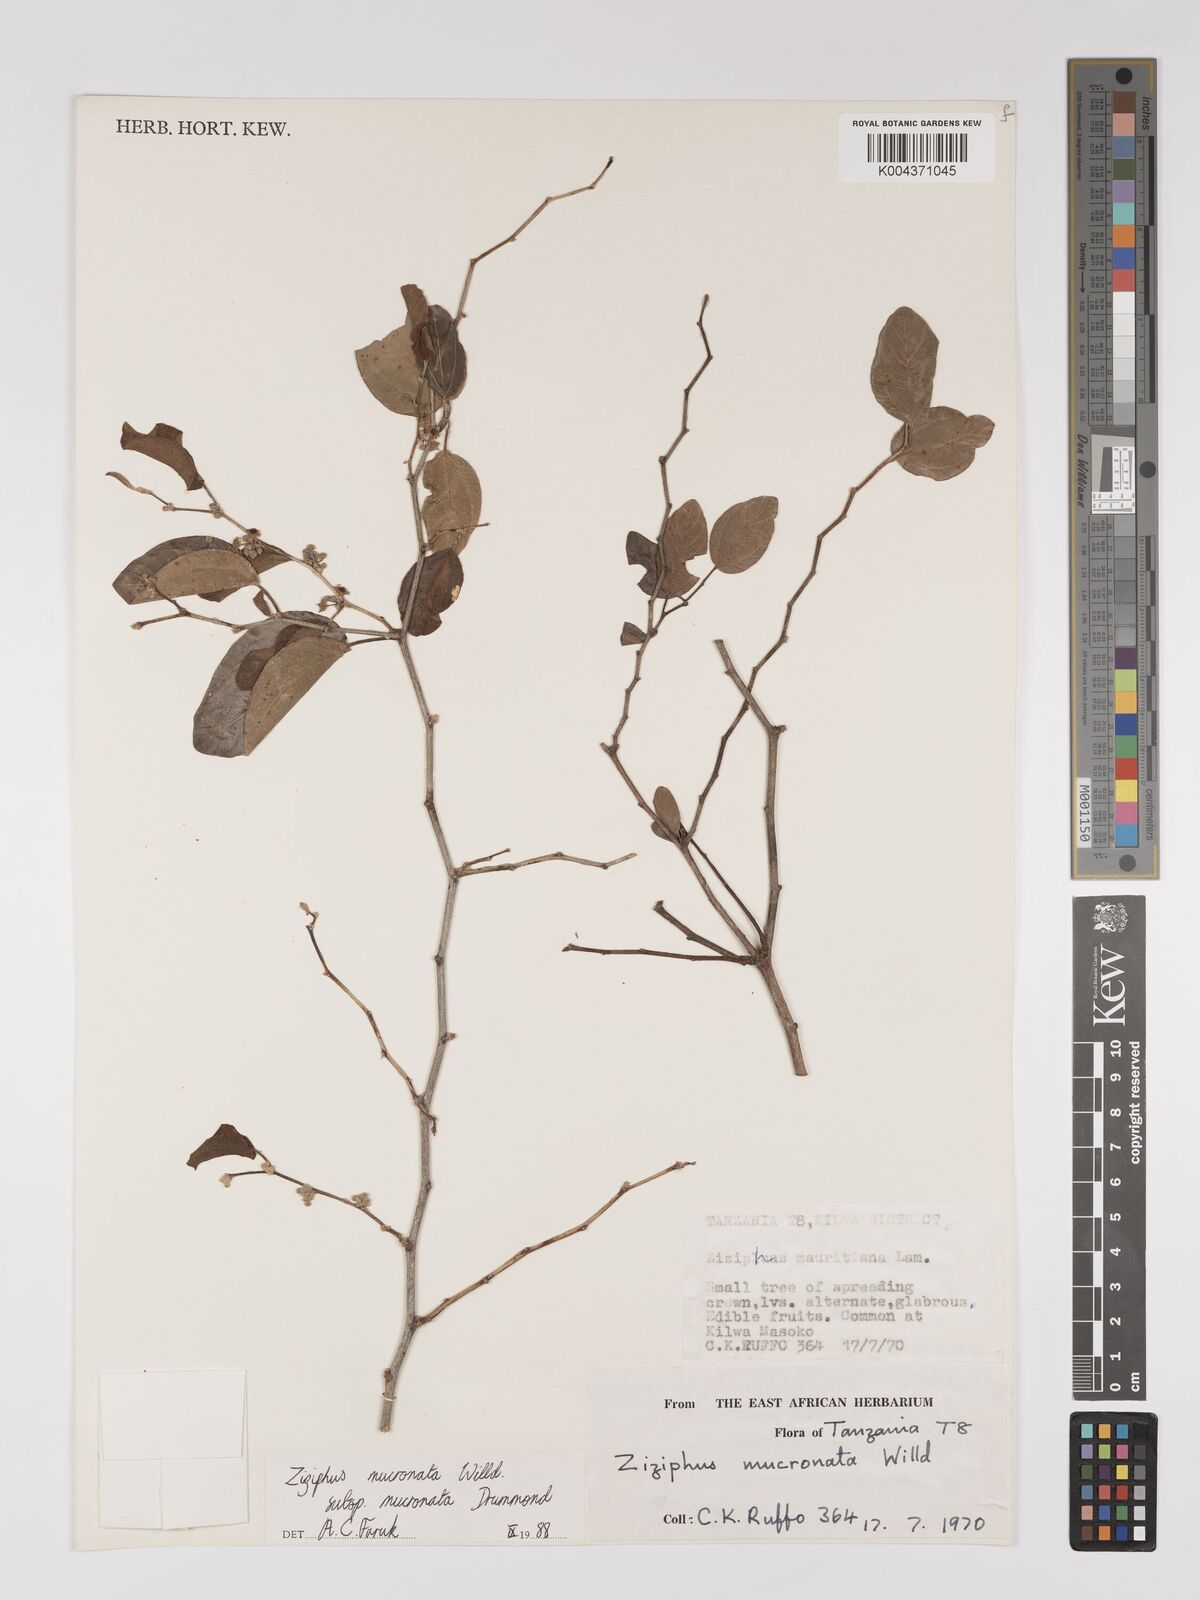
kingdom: Plantae
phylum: Tracheophyta
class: Magnoliopsida
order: Rosales
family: Rhamnaceae
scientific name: Rhamnaceae
